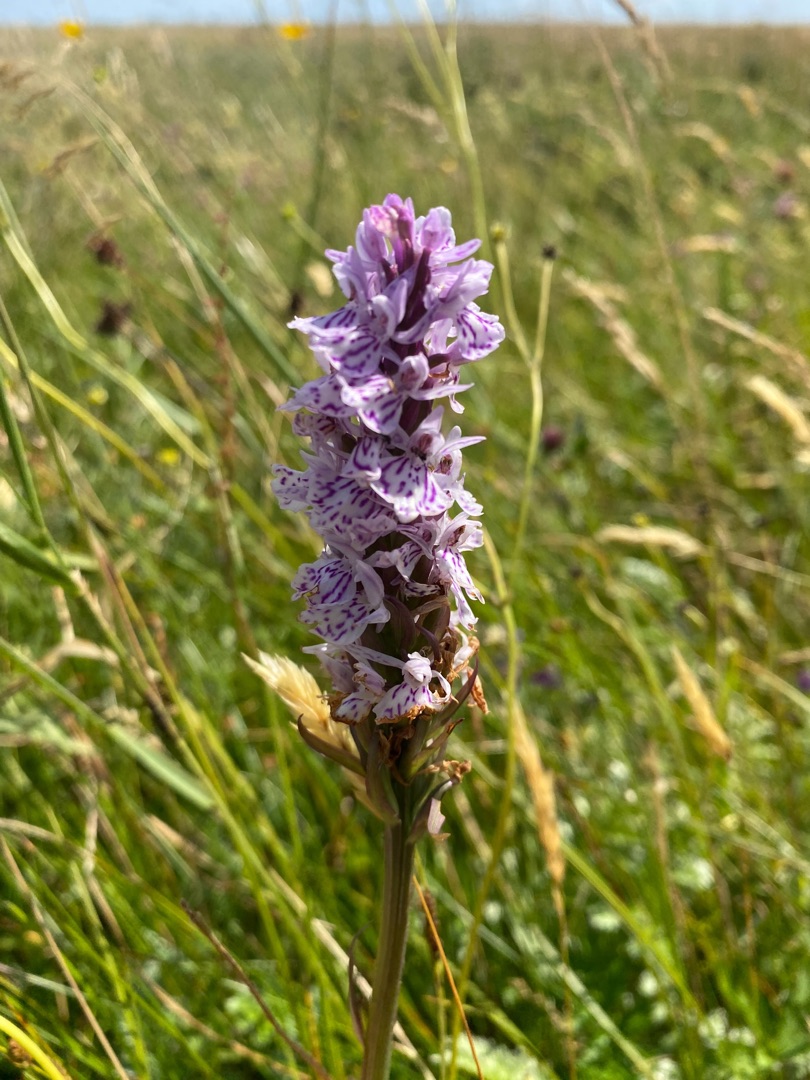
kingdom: Plantae
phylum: Tracheophyta
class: Liliopsida
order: Asparagales
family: Orchidaceae
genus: Dactylorhiza
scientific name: Dactylorhiza maculata
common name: Plettet gøgeurt
